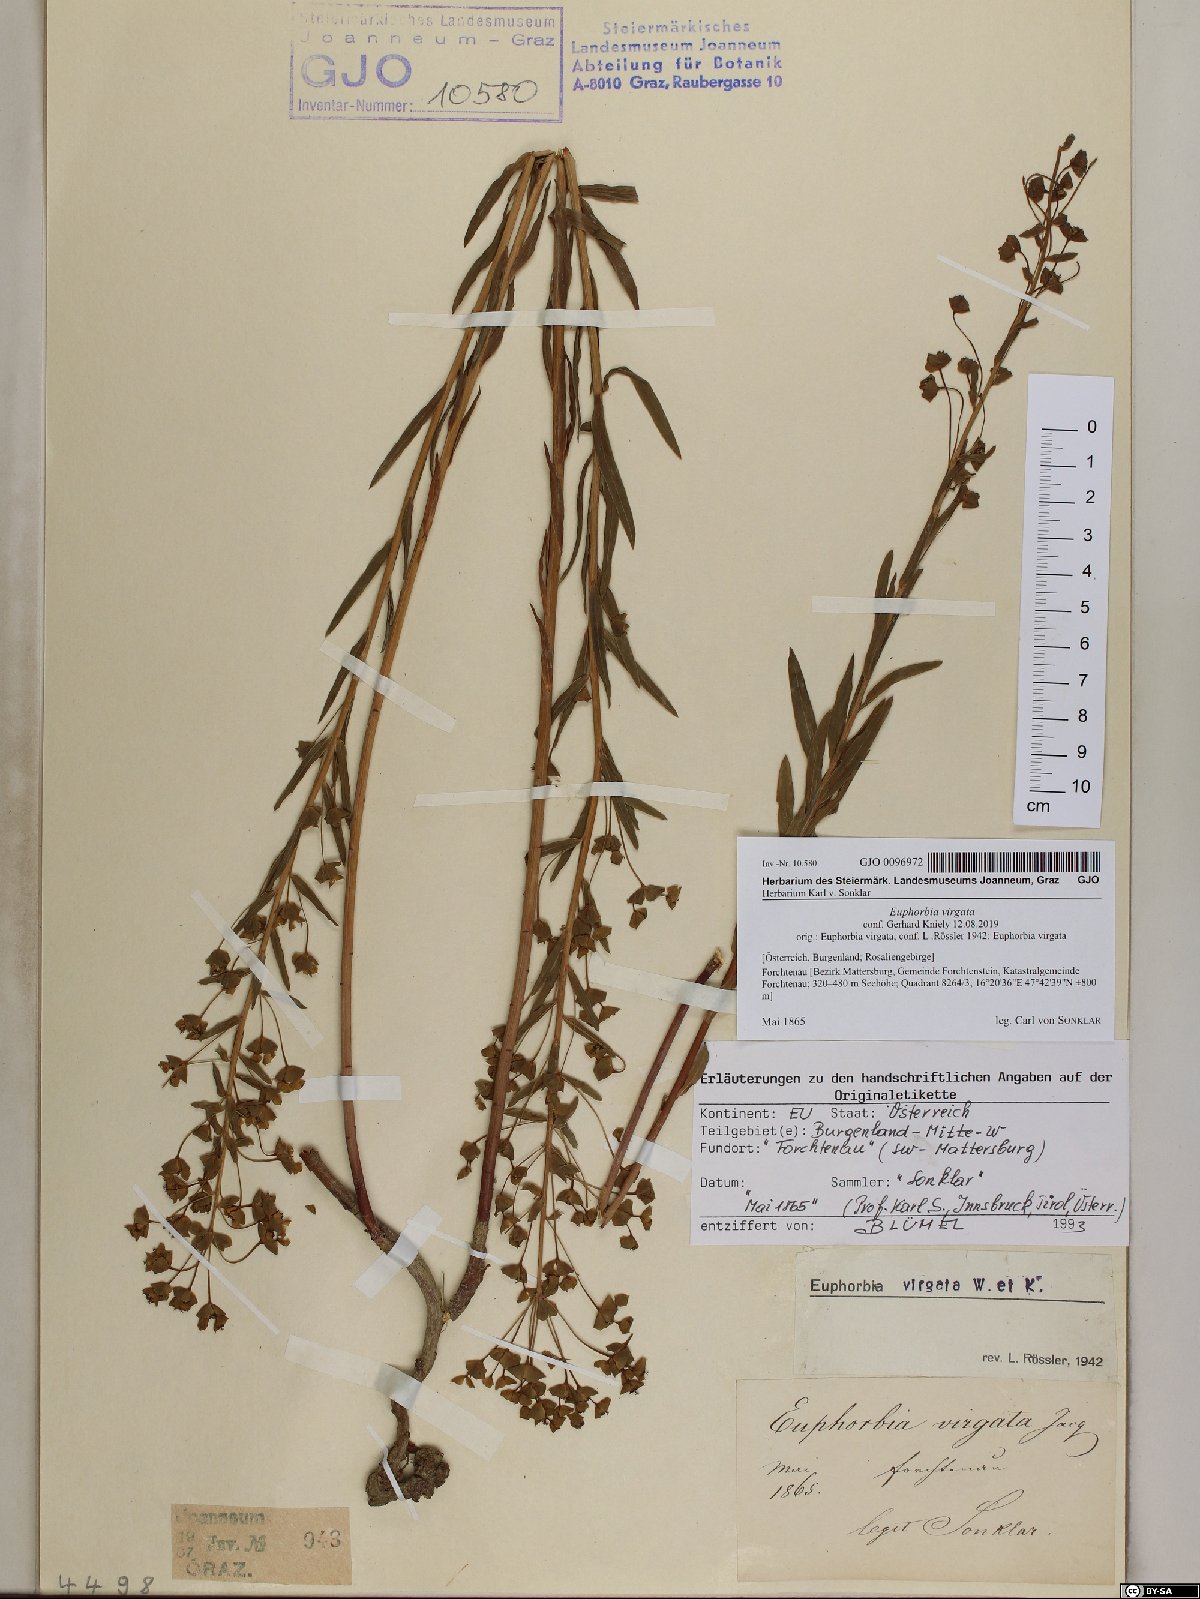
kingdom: Plantae
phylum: Tracheophyta
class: Magnoliopsida
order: Malpighiales
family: Euphorbiaceae
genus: Euphorbia
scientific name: Euphorbia virgata
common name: Leafy spurge
